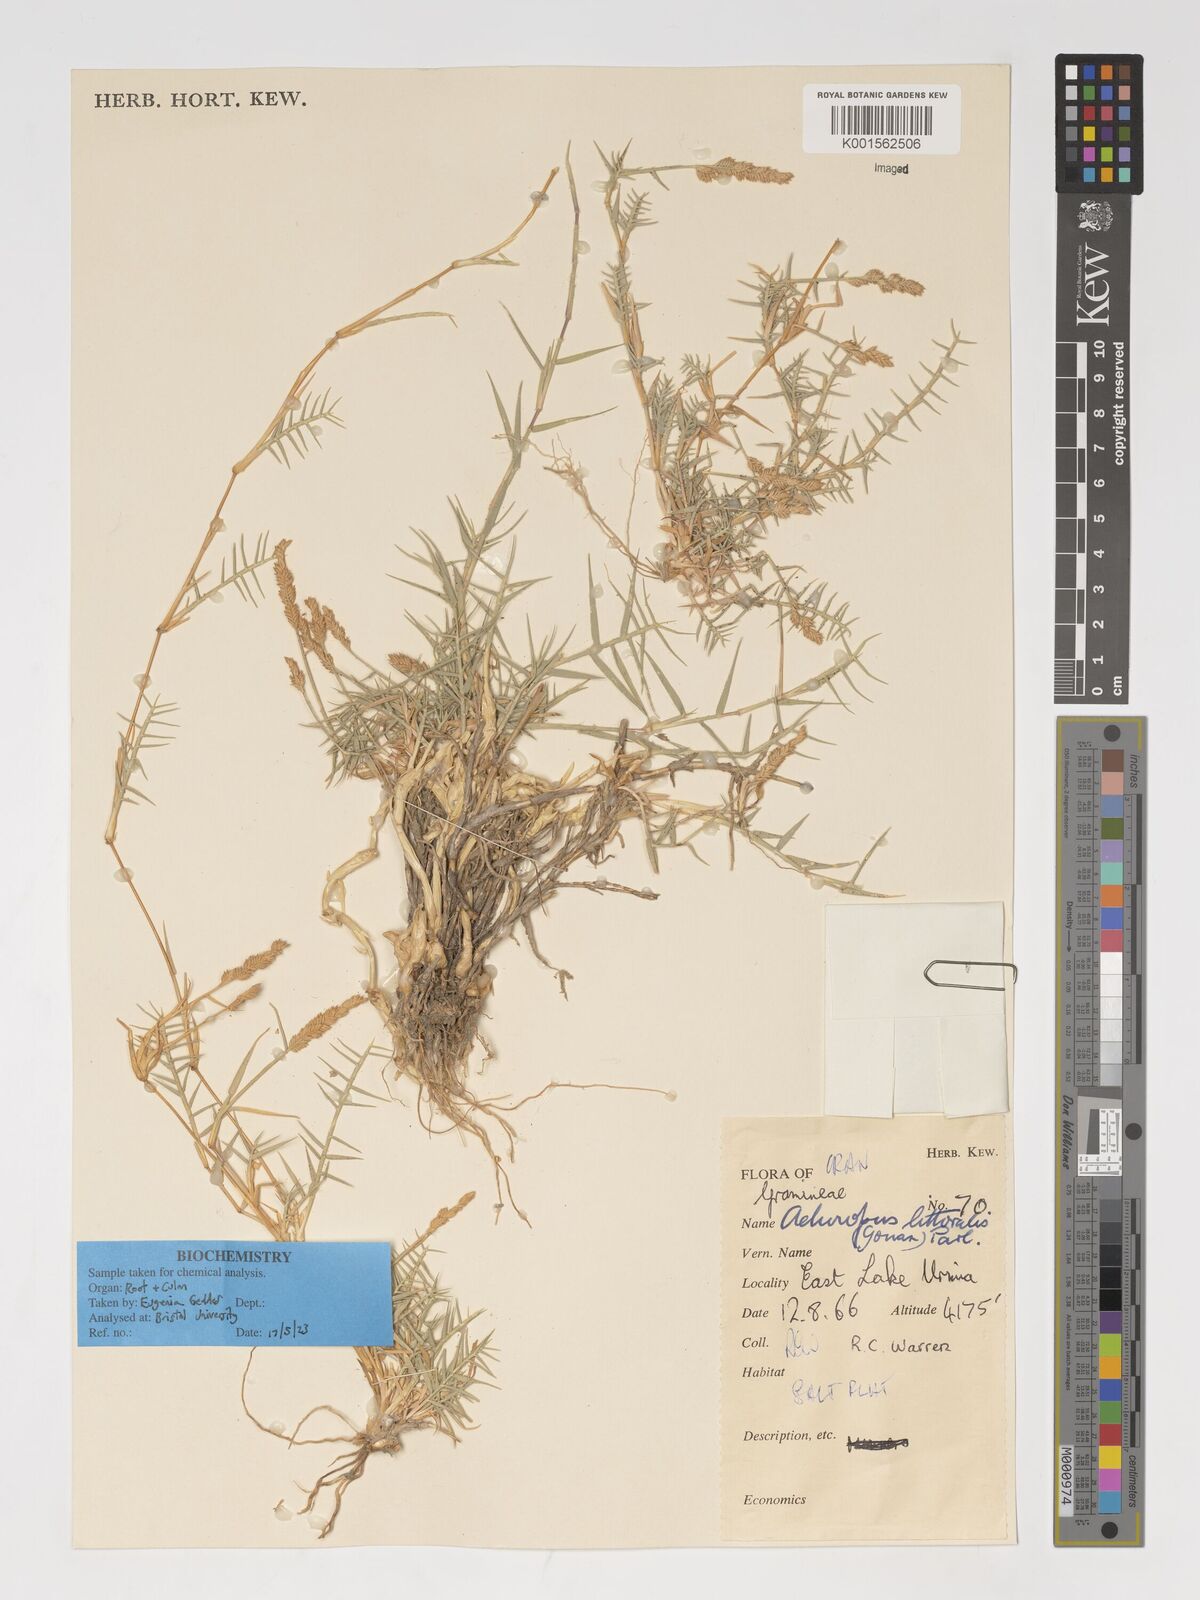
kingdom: Plantae
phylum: Tracheophyta
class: Liliopsida
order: Poales
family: Poaceae
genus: Aeluropus
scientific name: Aeluropus littoralis
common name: Indian walnut
